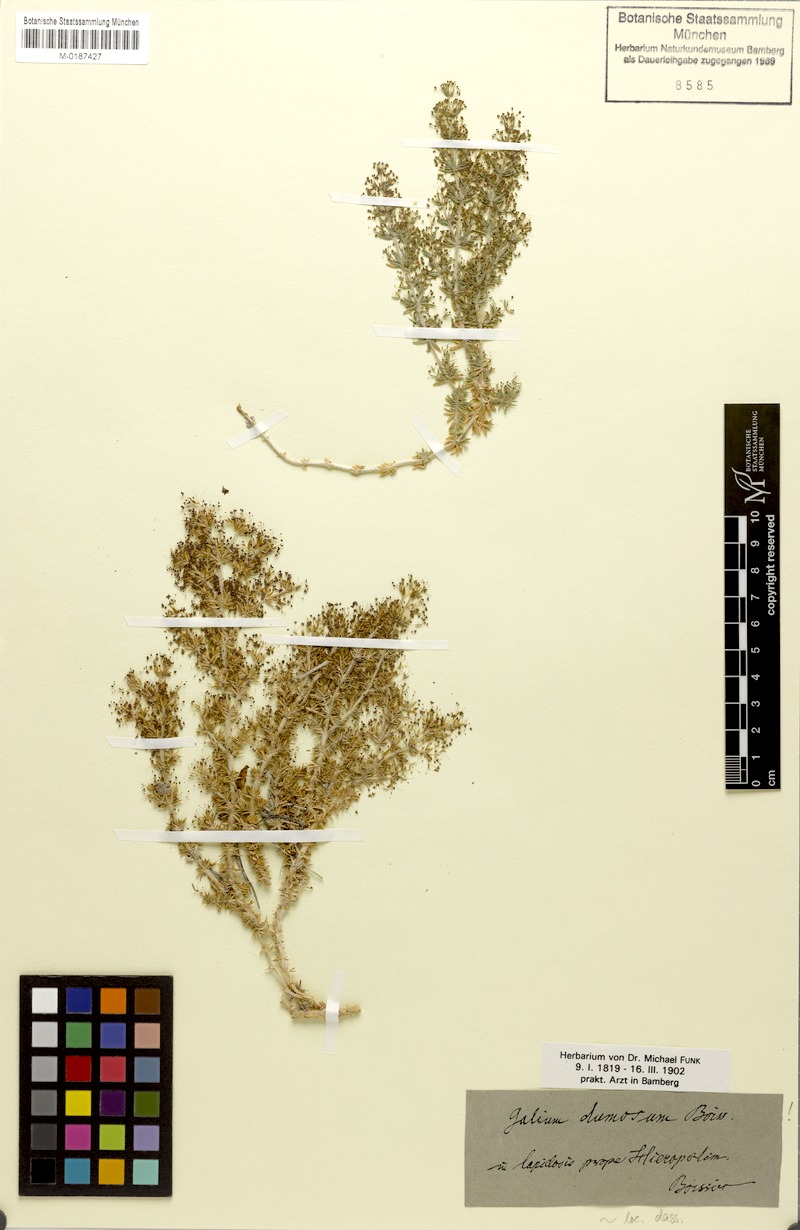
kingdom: Plantae
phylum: Tracheophyta
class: Magnoliopsida
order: Gentianales
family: Rubiaceae
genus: Galium
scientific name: Galium dumosum
